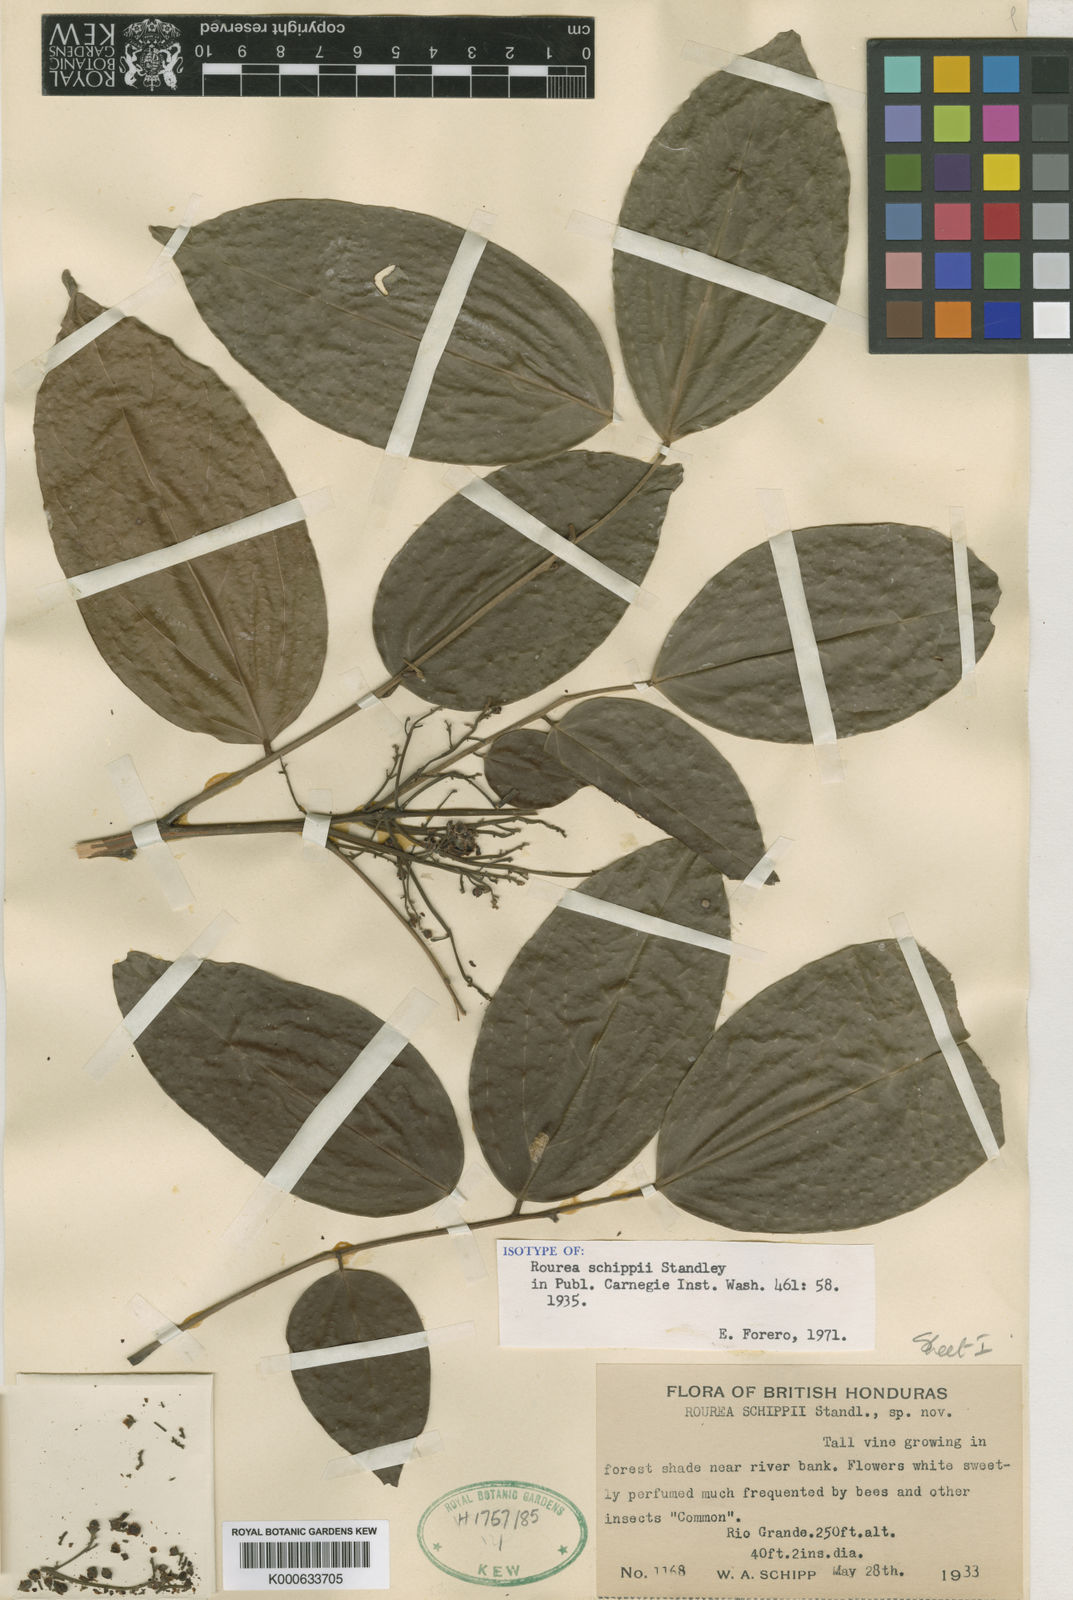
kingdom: Plantae
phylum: Tracheophyta
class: Magnoliopsida
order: Oxalidales
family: Connaraceae
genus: Rourea
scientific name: Rourea schippii
